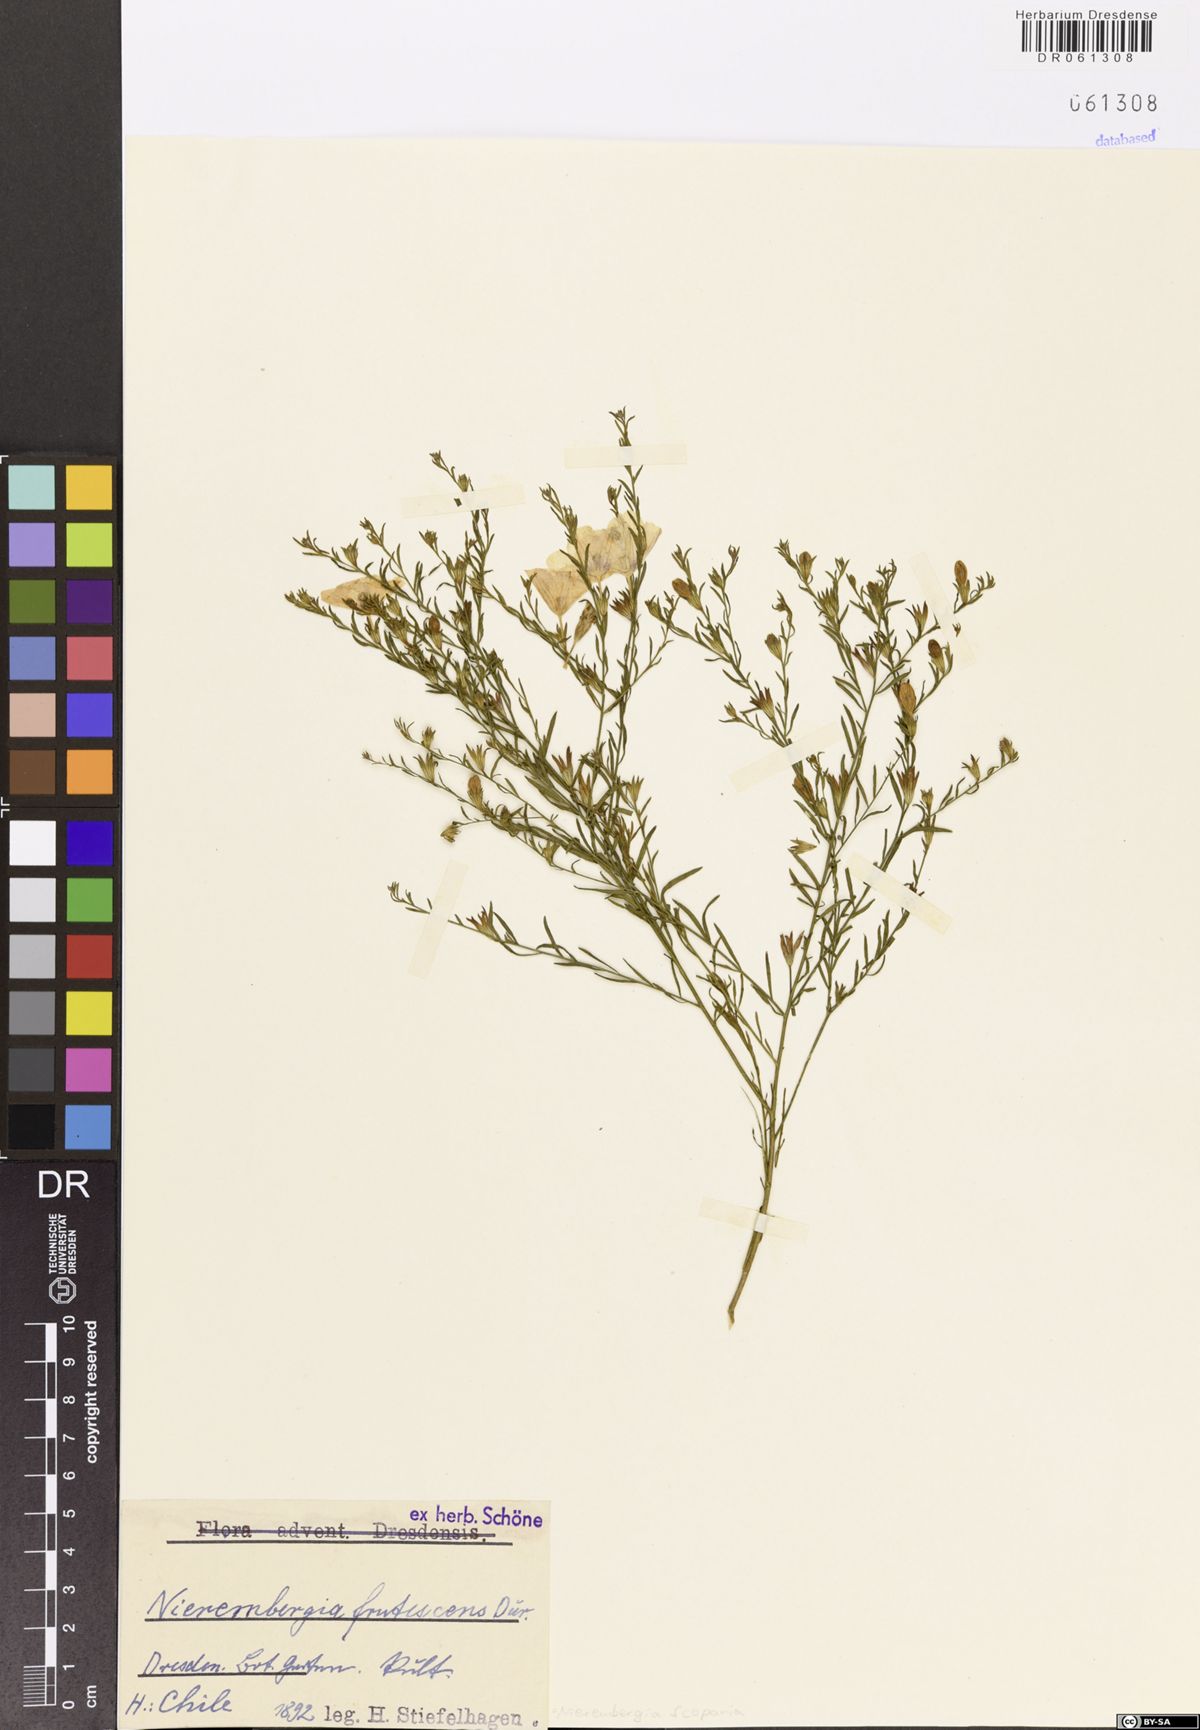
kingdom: Plantae
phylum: Tracheophyta
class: Magnoliopsida
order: Solanales
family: Solanaceae
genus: Nierembergia
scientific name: Nierembergia scoparia
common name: Broom cupflower
